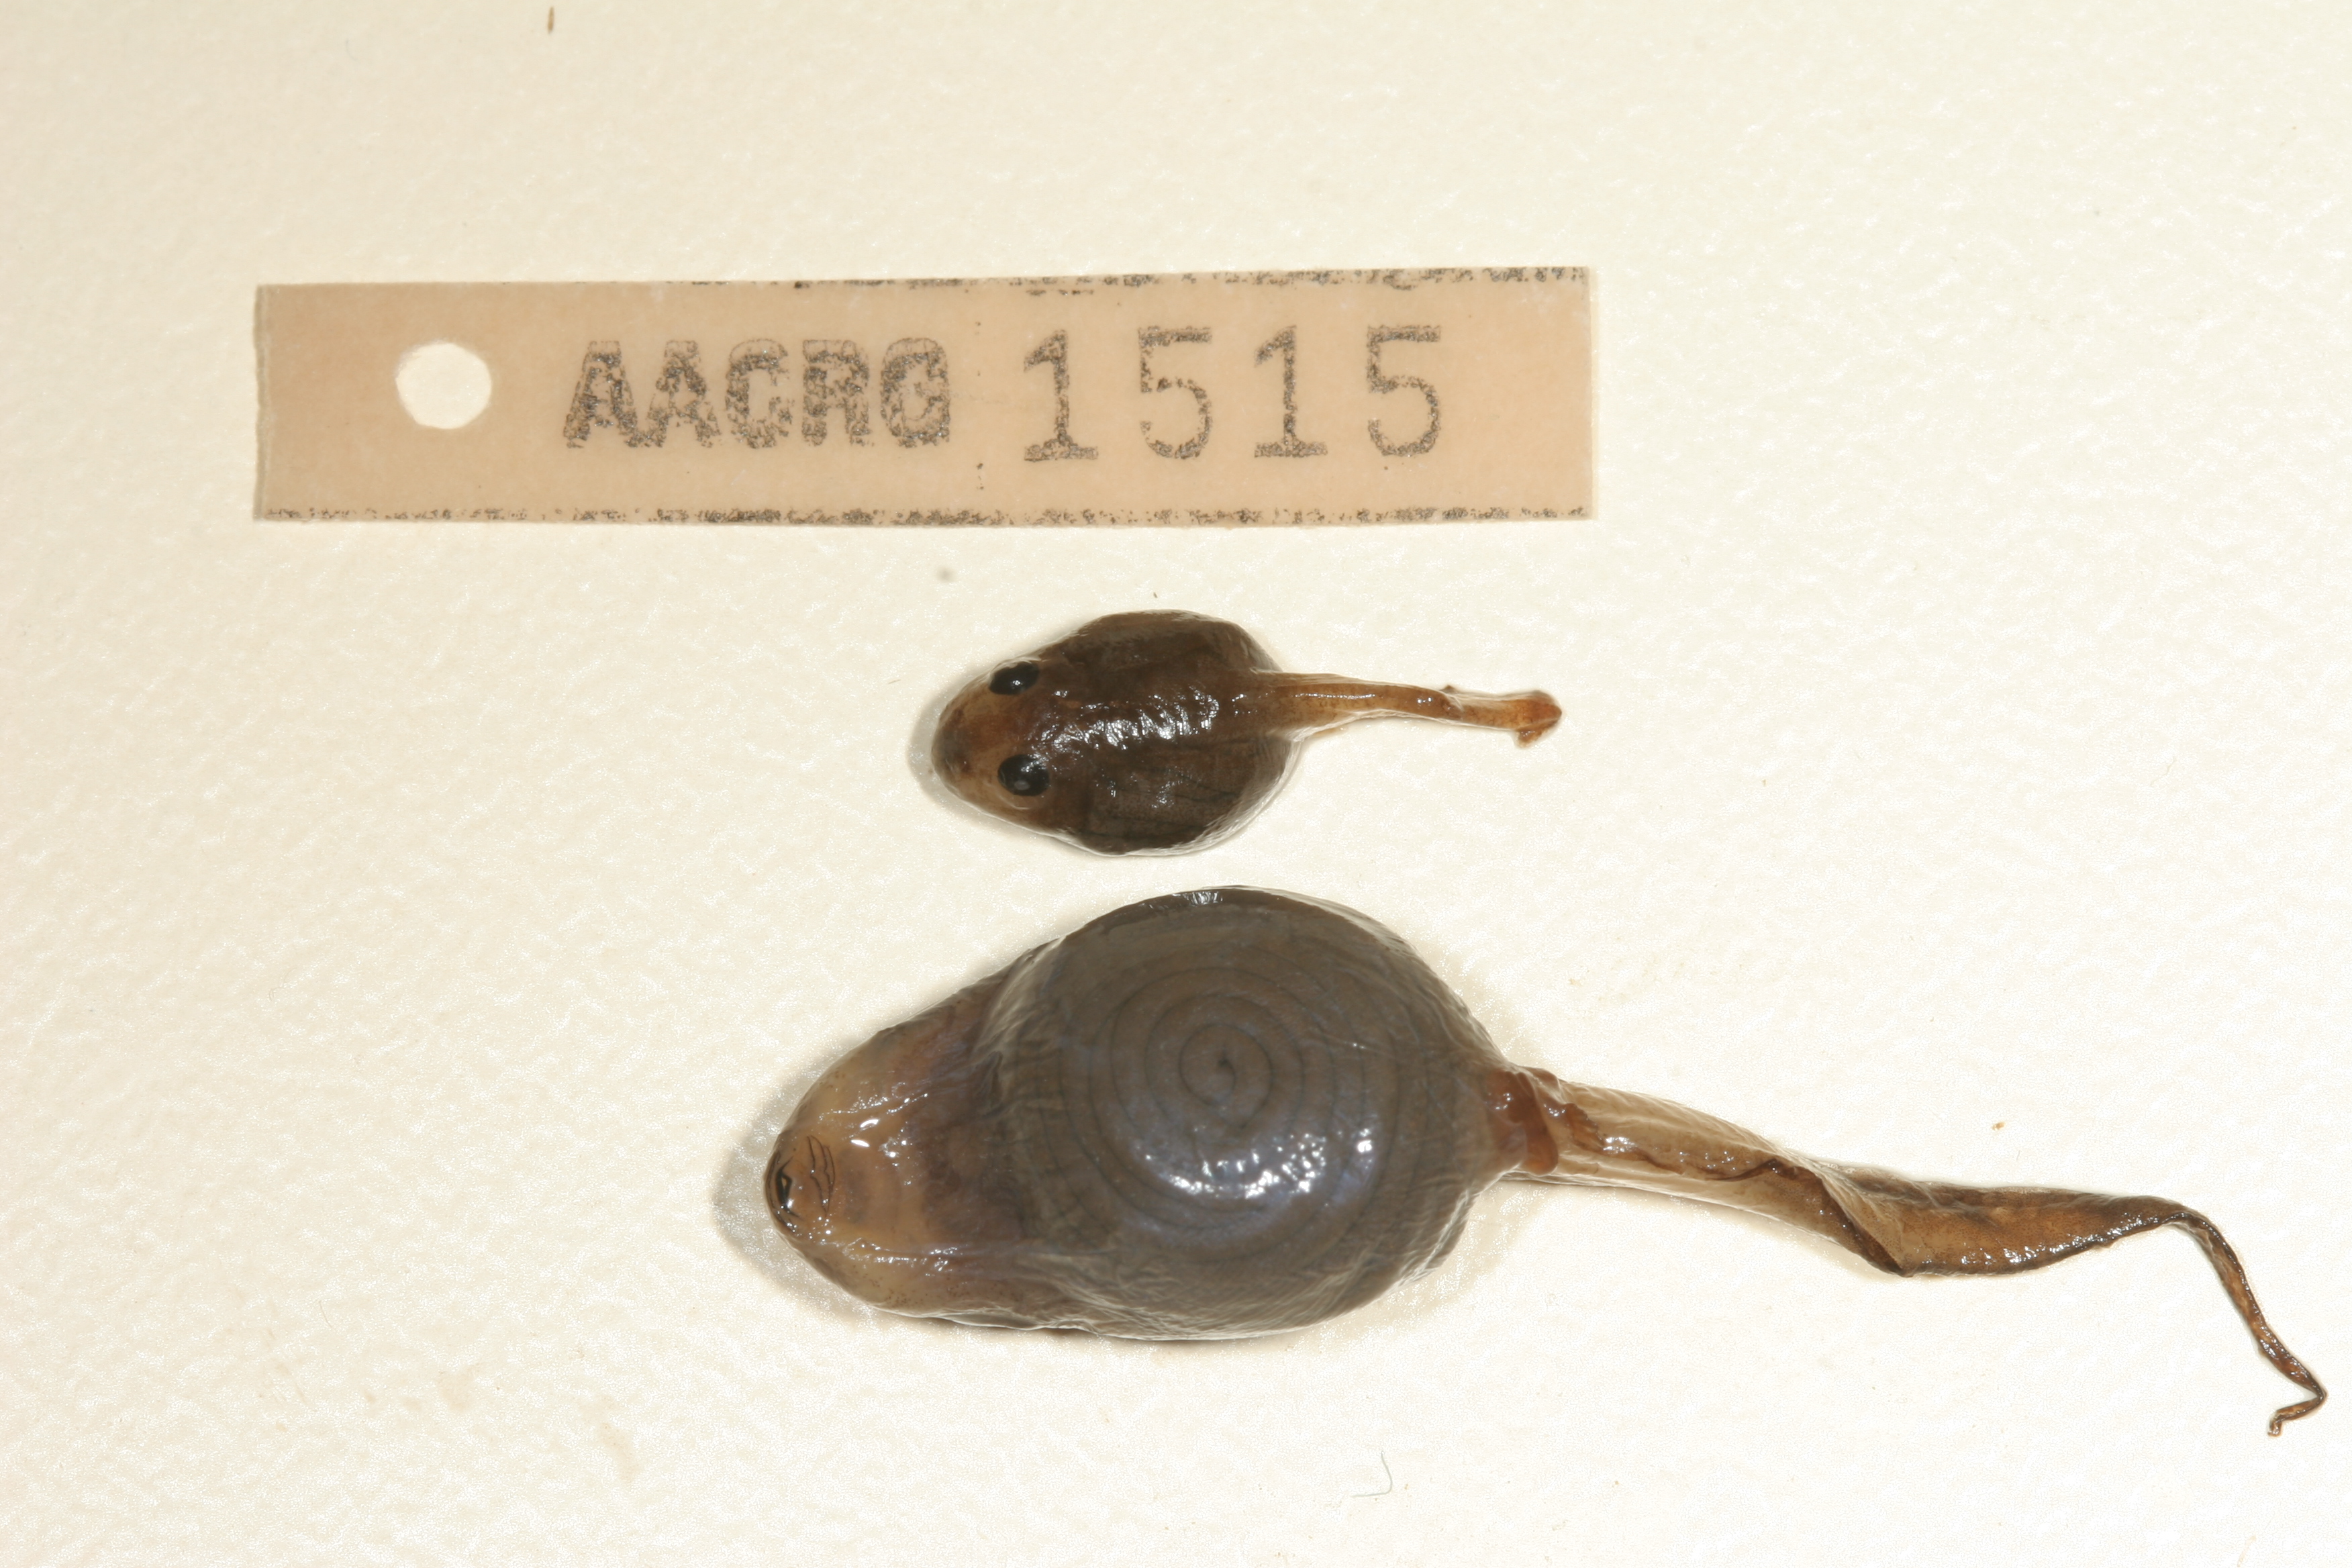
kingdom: Animalia
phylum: Chordata
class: Amphibia
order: Anura
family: Rhacophoridae
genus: Chiromantis
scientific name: Chiromantis xerampelina
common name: African gray treefrog
